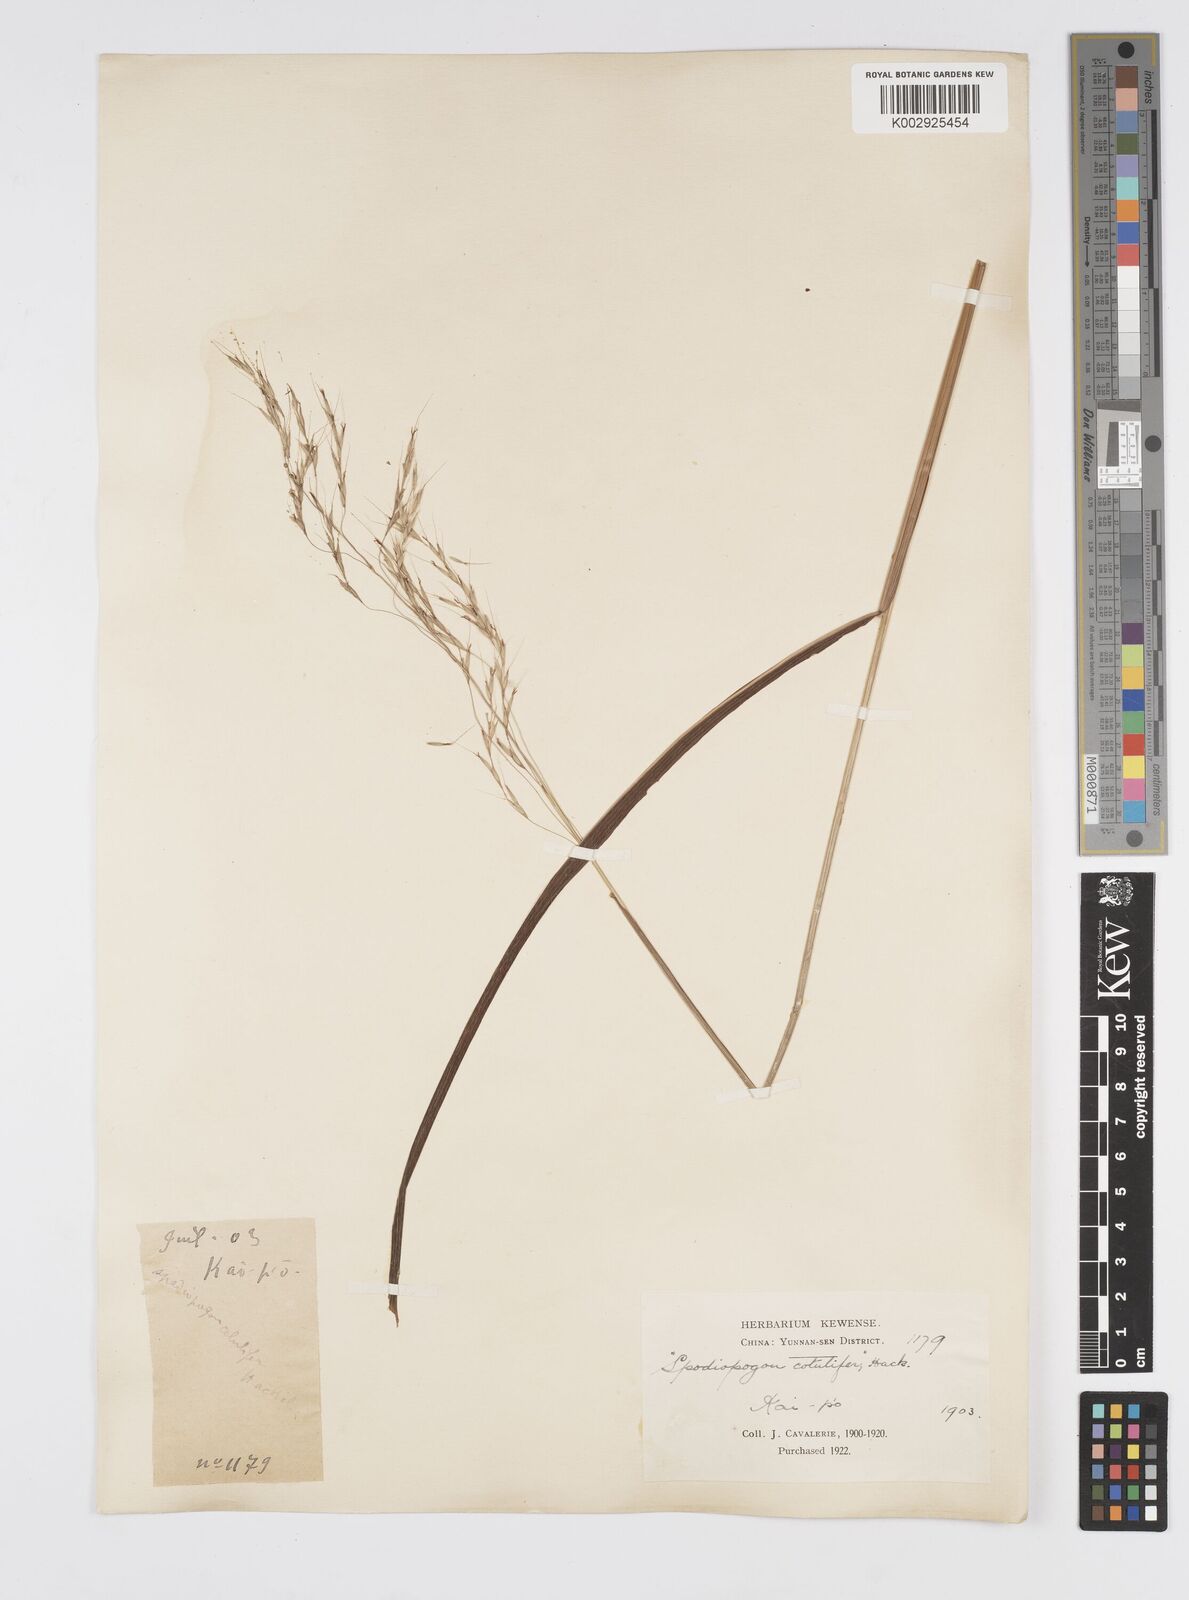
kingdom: Plantae
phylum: Tracheophyta
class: Liliopsida
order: Poales
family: Poaceae
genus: Spodiopogon
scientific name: Spodiopogon cotulifer
